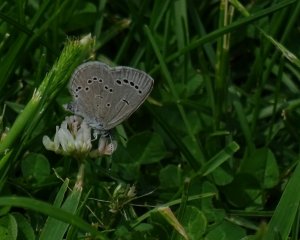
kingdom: Animalia
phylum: Arthropoda
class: Insecta
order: Lepidoptera
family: Lycaenidae
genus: Glaucopsyche
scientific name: Glaucopsyche lygdamus
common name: Silvery Blue
